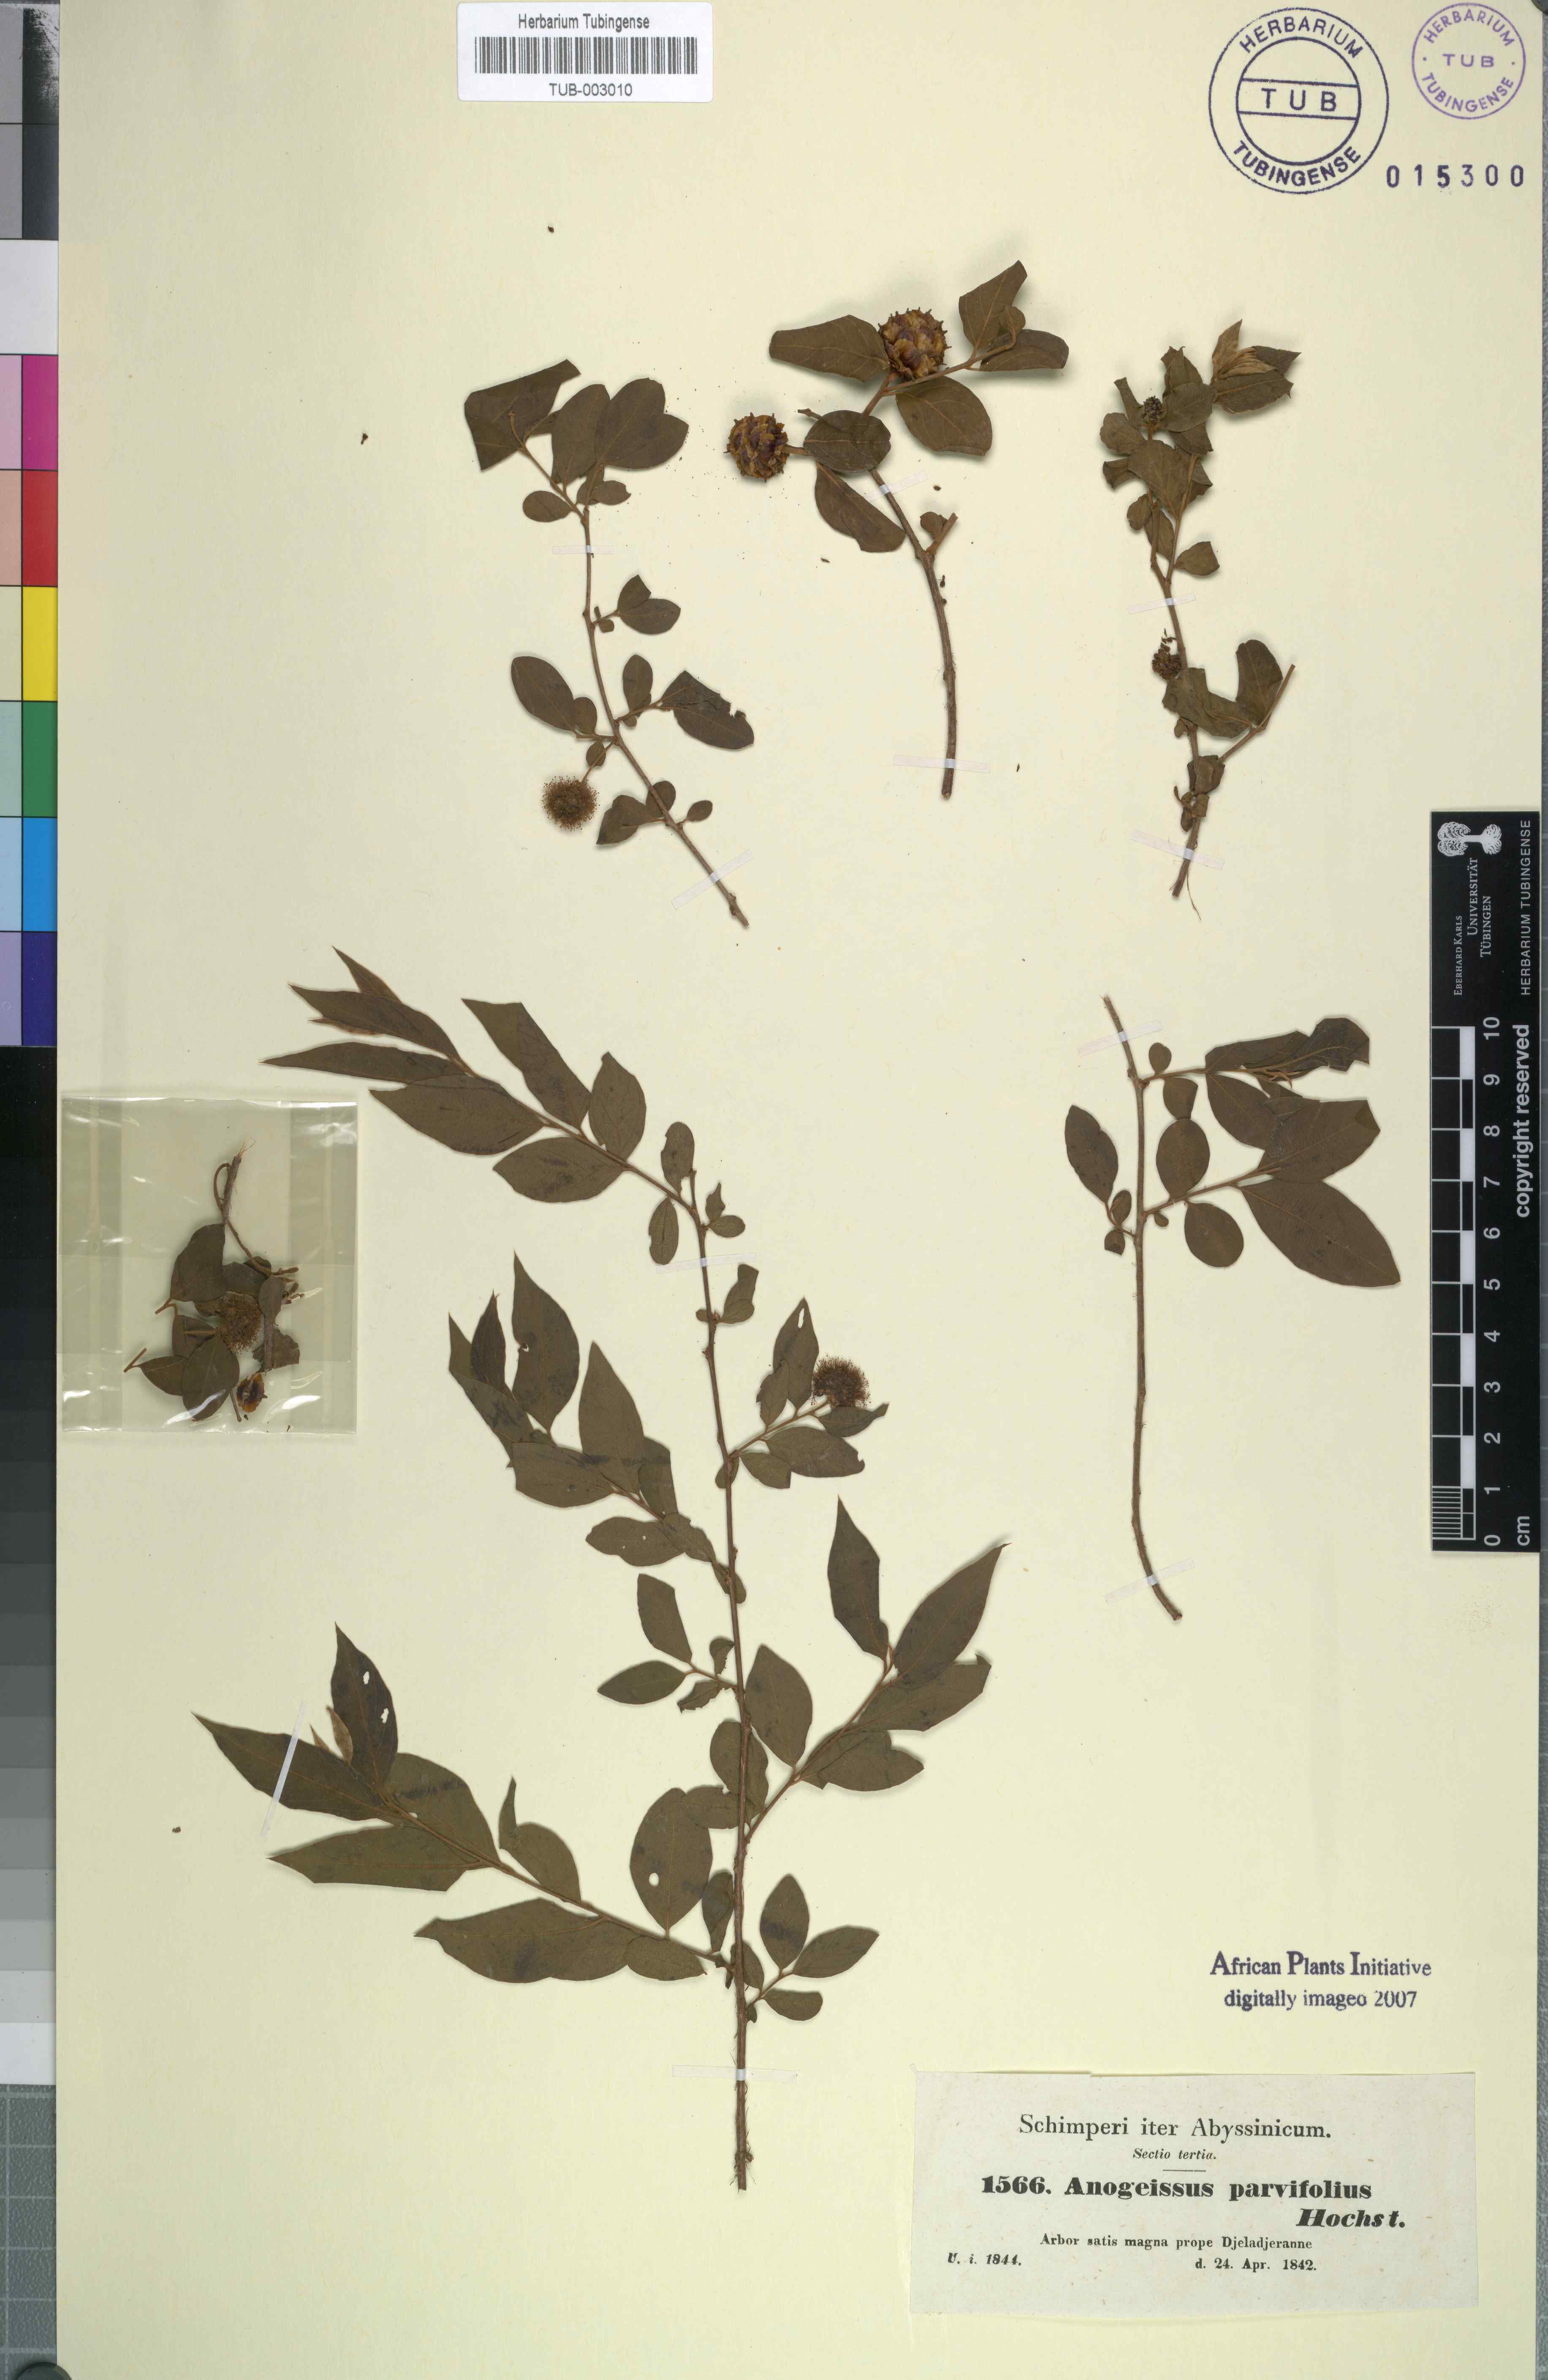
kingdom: Plantae
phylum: Tracheophyta
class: Magnoliopsida
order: Myrtales
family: Combretaceae
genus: Terminalia
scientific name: Terminalia leiocarpa
